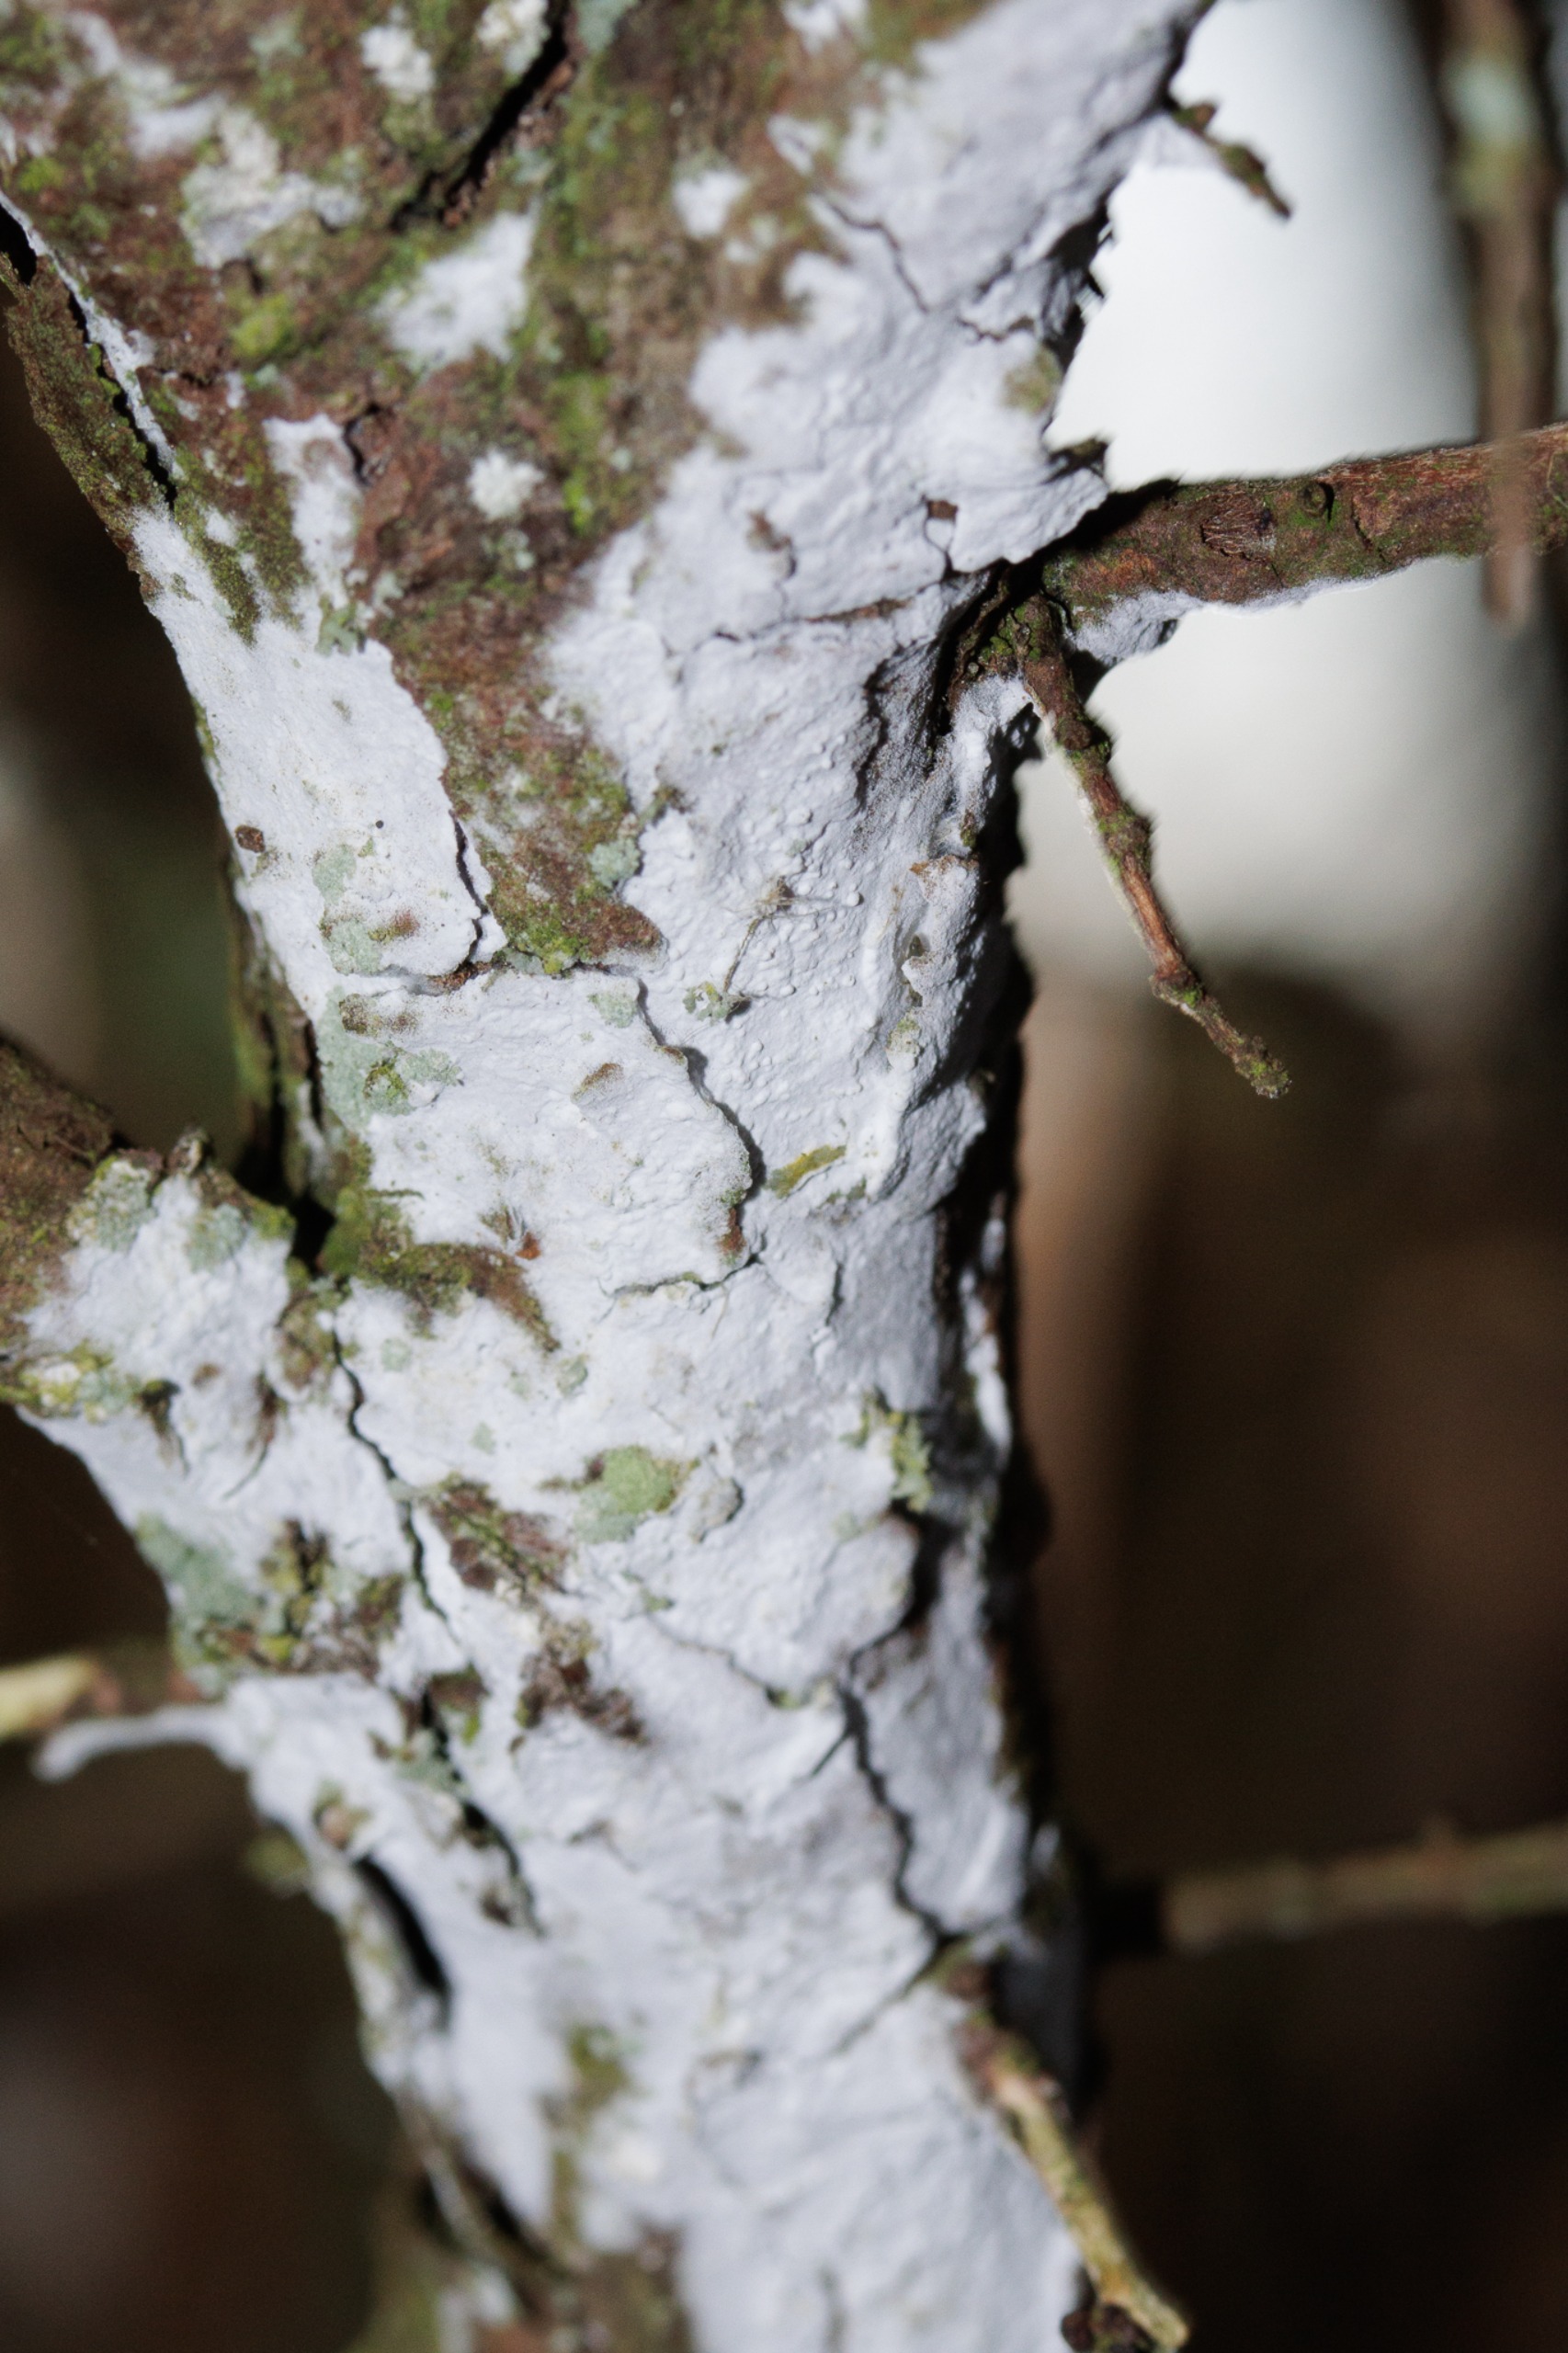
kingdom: Fungi
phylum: Basidiomycota
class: Agaricomycetes
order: Corticiales
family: Corticiaceae
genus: Lyomyces
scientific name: Lyomyces sambuci
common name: Almindelig hyldehinde
